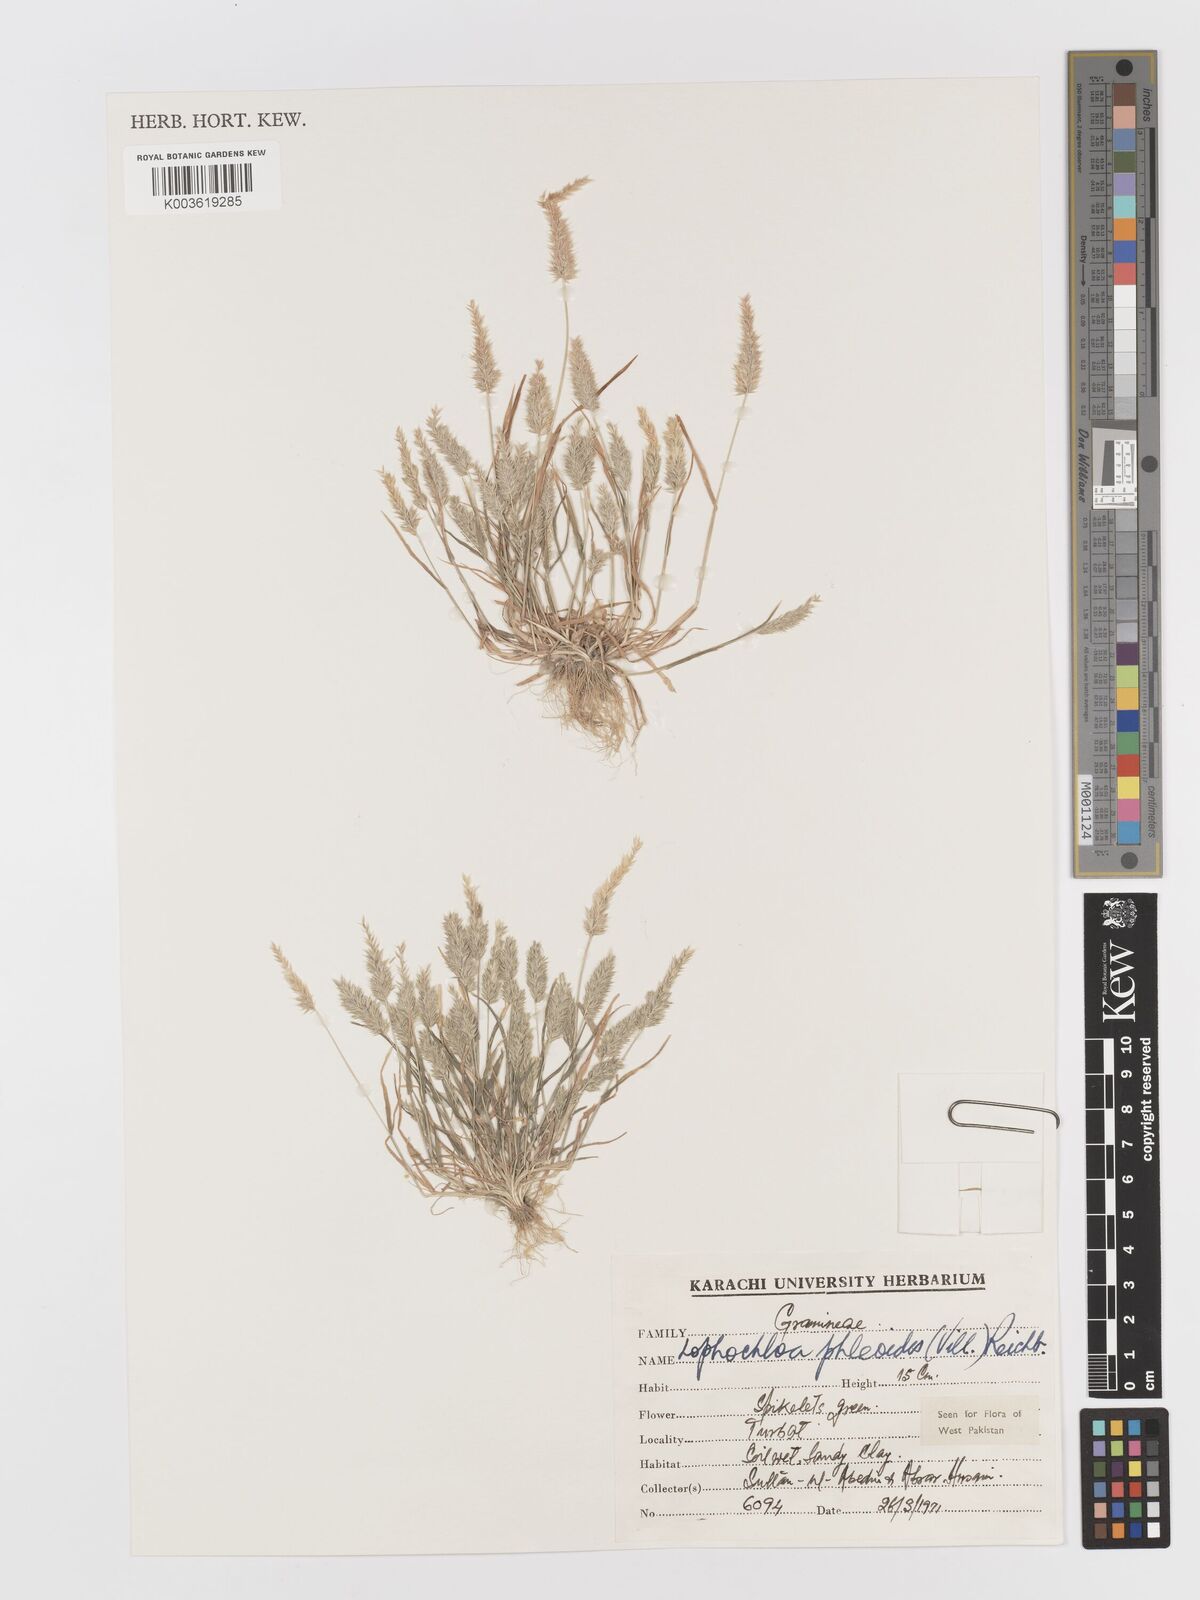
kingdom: Plantae
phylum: Tracheophyta
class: Liliopsida
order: Poales
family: Poaceae
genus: Rostraria
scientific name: Rostraria cristata
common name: Mediterranean hair-grass
